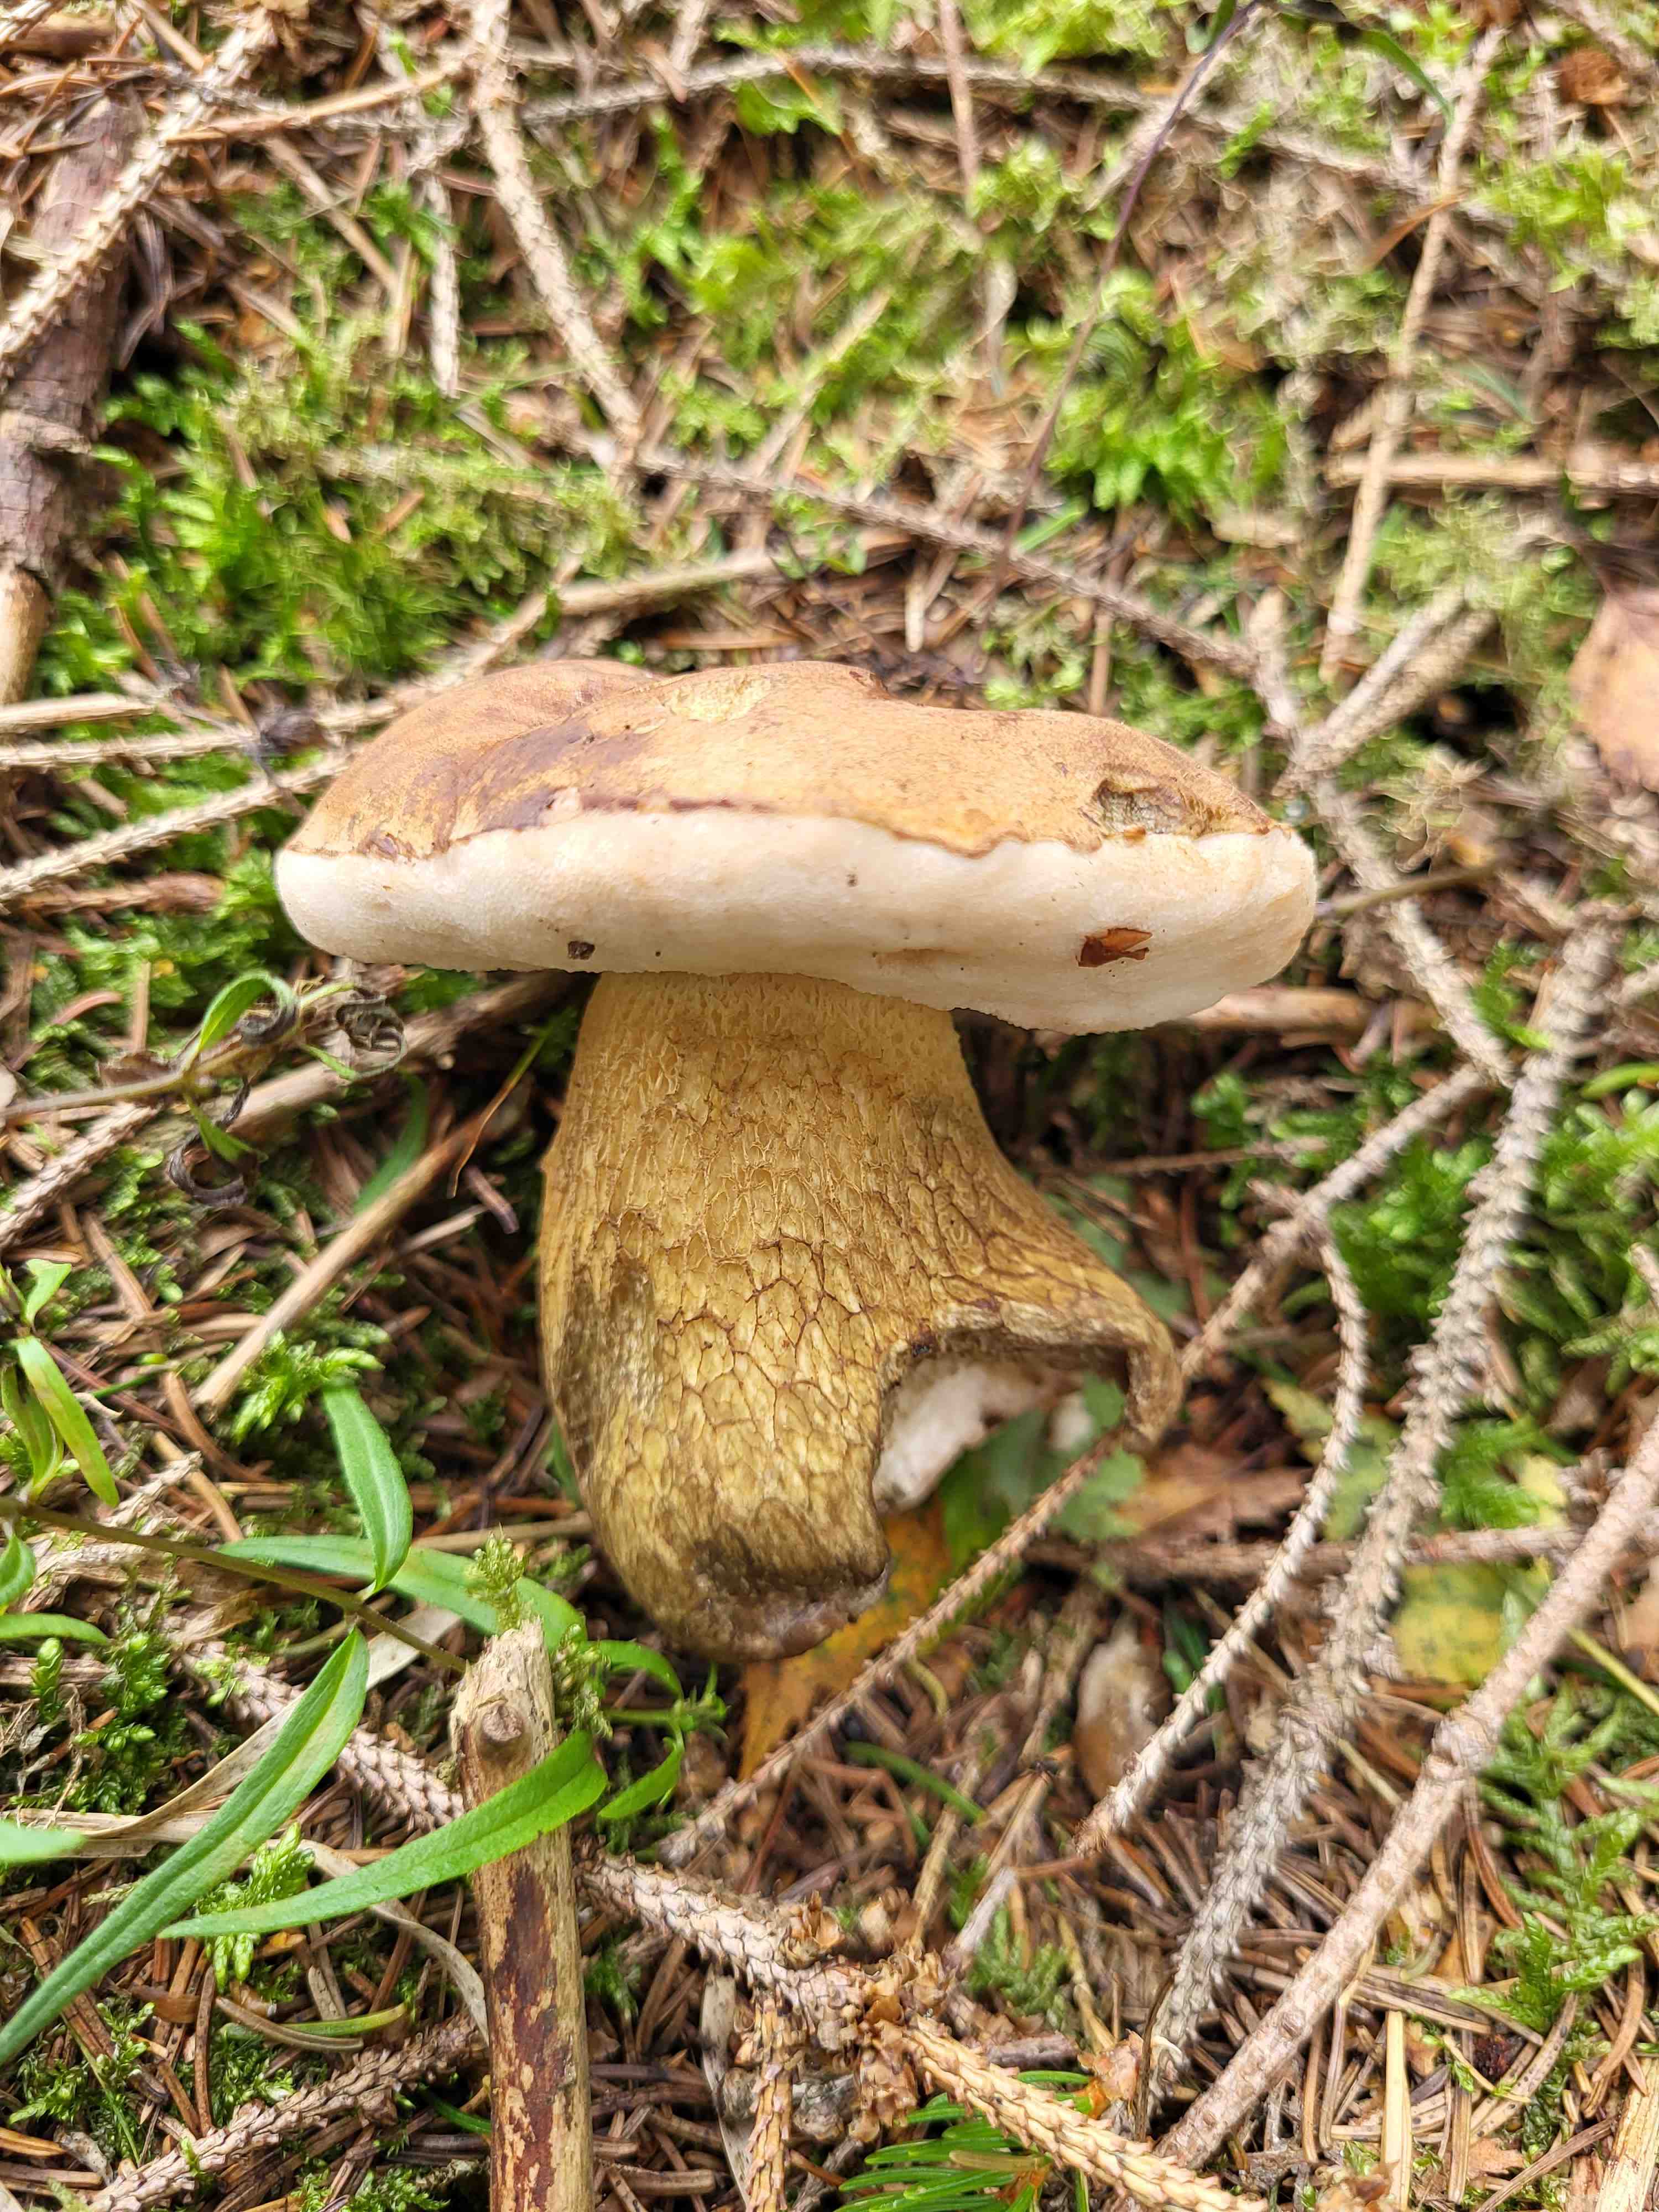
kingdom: Fungi
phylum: Basidiomycota
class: Agaricomycetes
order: Boletales
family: Boletaceae
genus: Tylopilus
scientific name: Tylopilus felleus
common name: galderørhat
